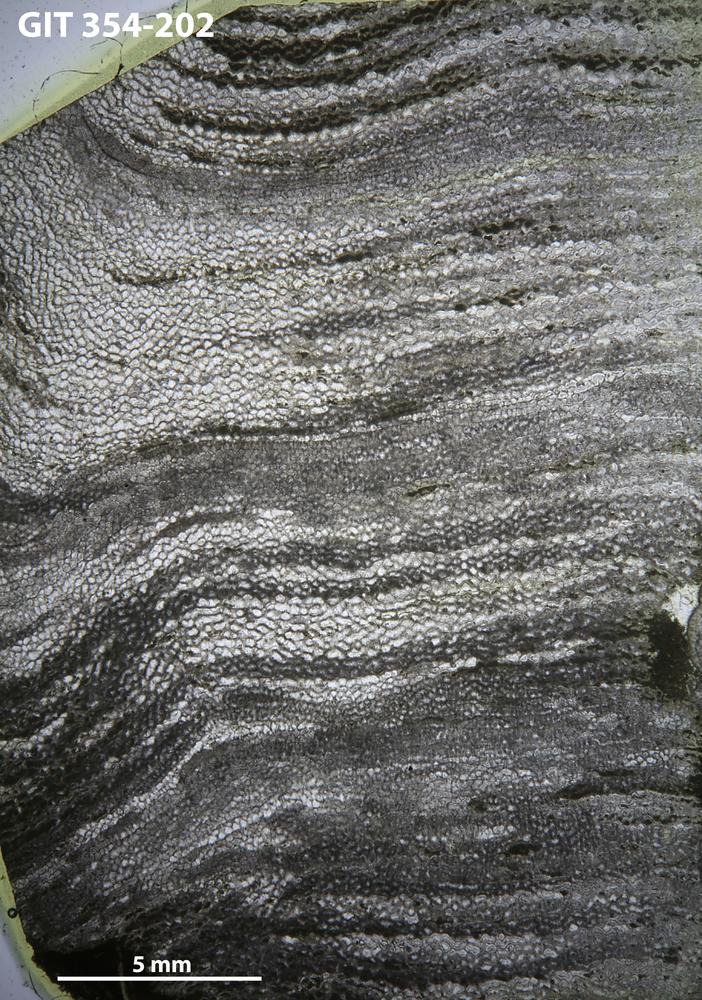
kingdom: Animalia
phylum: Porifera
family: Ecclimadictyidae
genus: Ecclimadictyon
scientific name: Ecclimadictyon Clathrodictyon microvesiculosum
